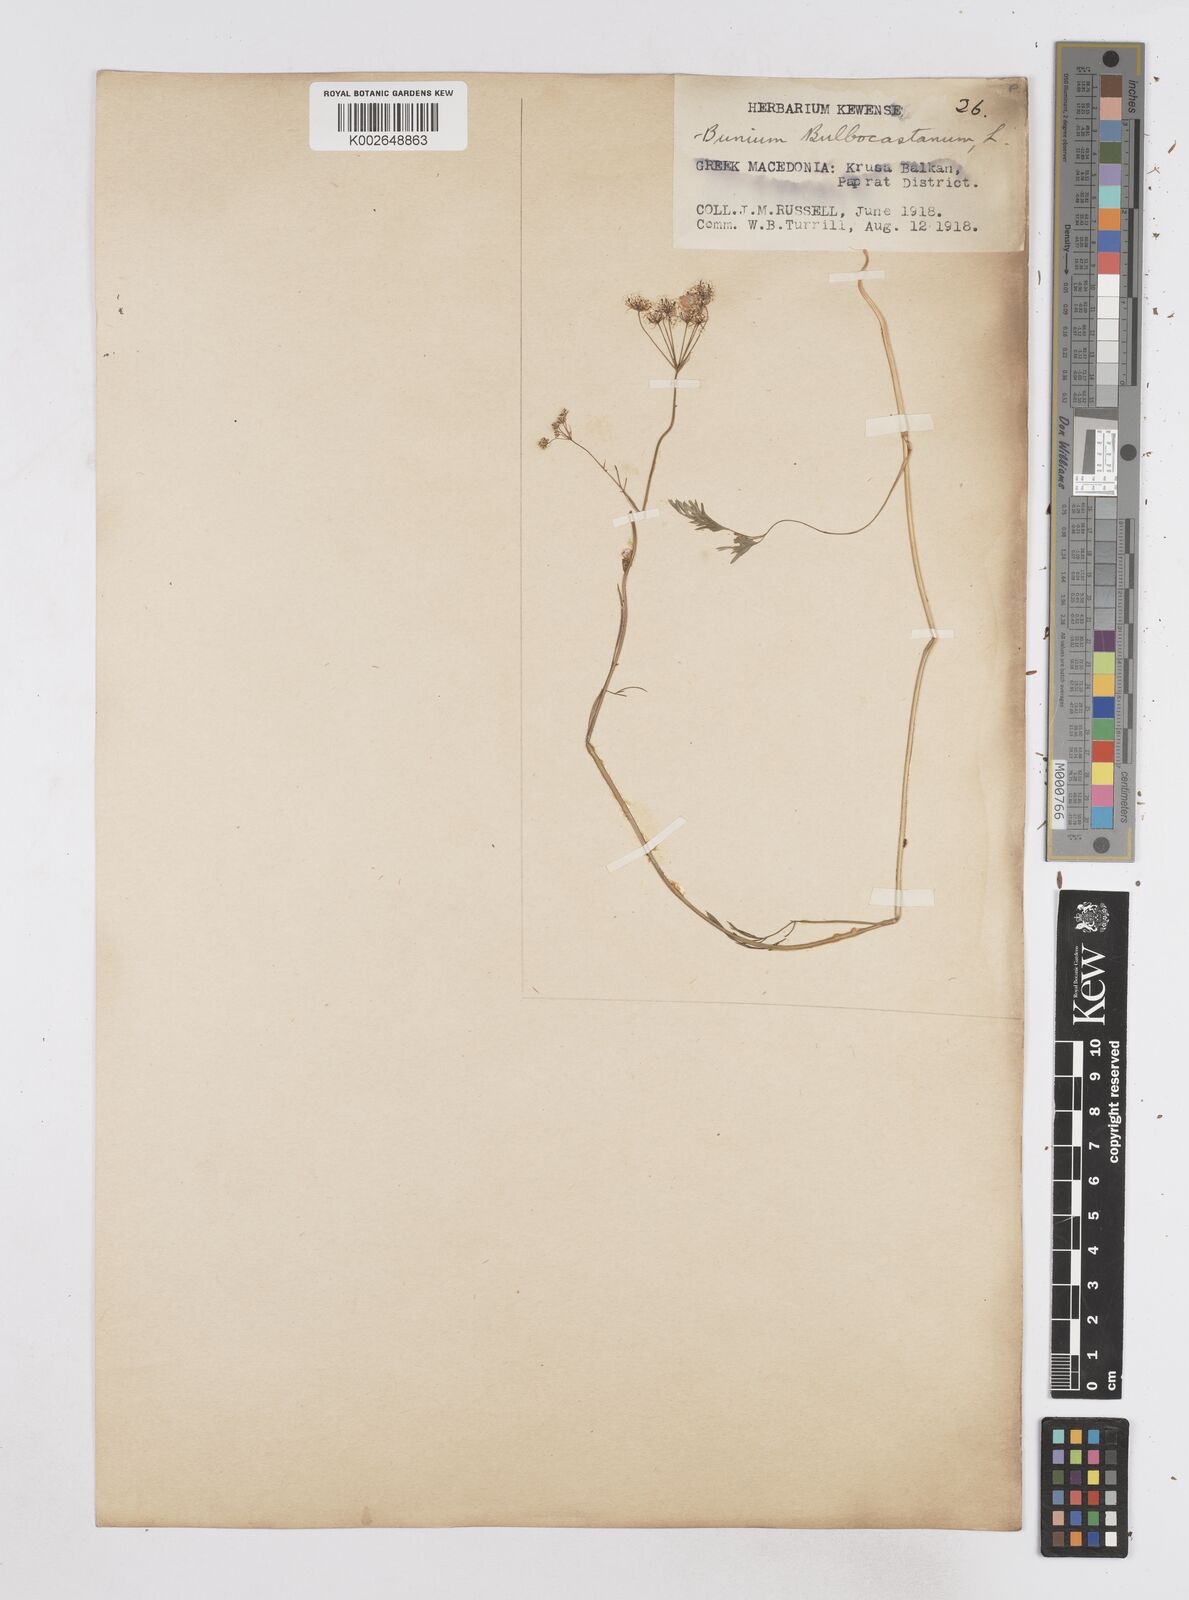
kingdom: Plantae
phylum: Tracheophyta
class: Magnoliopsida
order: Apiales
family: Apiaceae
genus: Bunium
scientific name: Bunium bulbocastanum
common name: Great pignut
